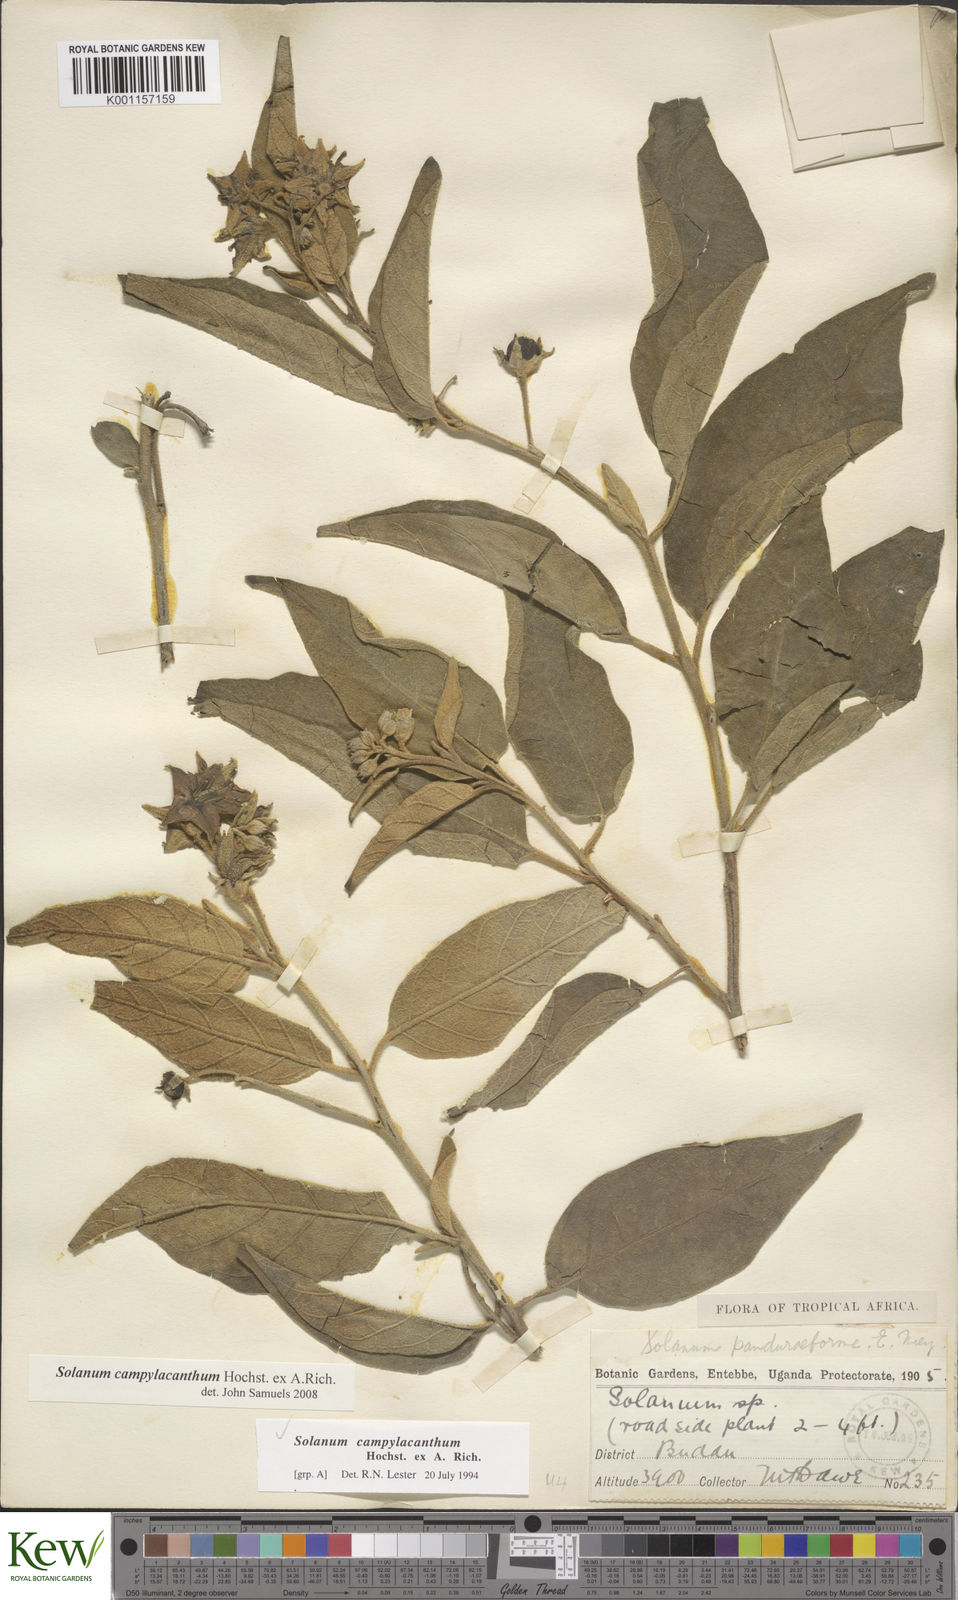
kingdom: Plantae
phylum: Tracheophyta
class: Magnoliopsida
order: Solanales
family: Solanaceae
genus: Solanum
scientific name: Solanum campylacanthum
